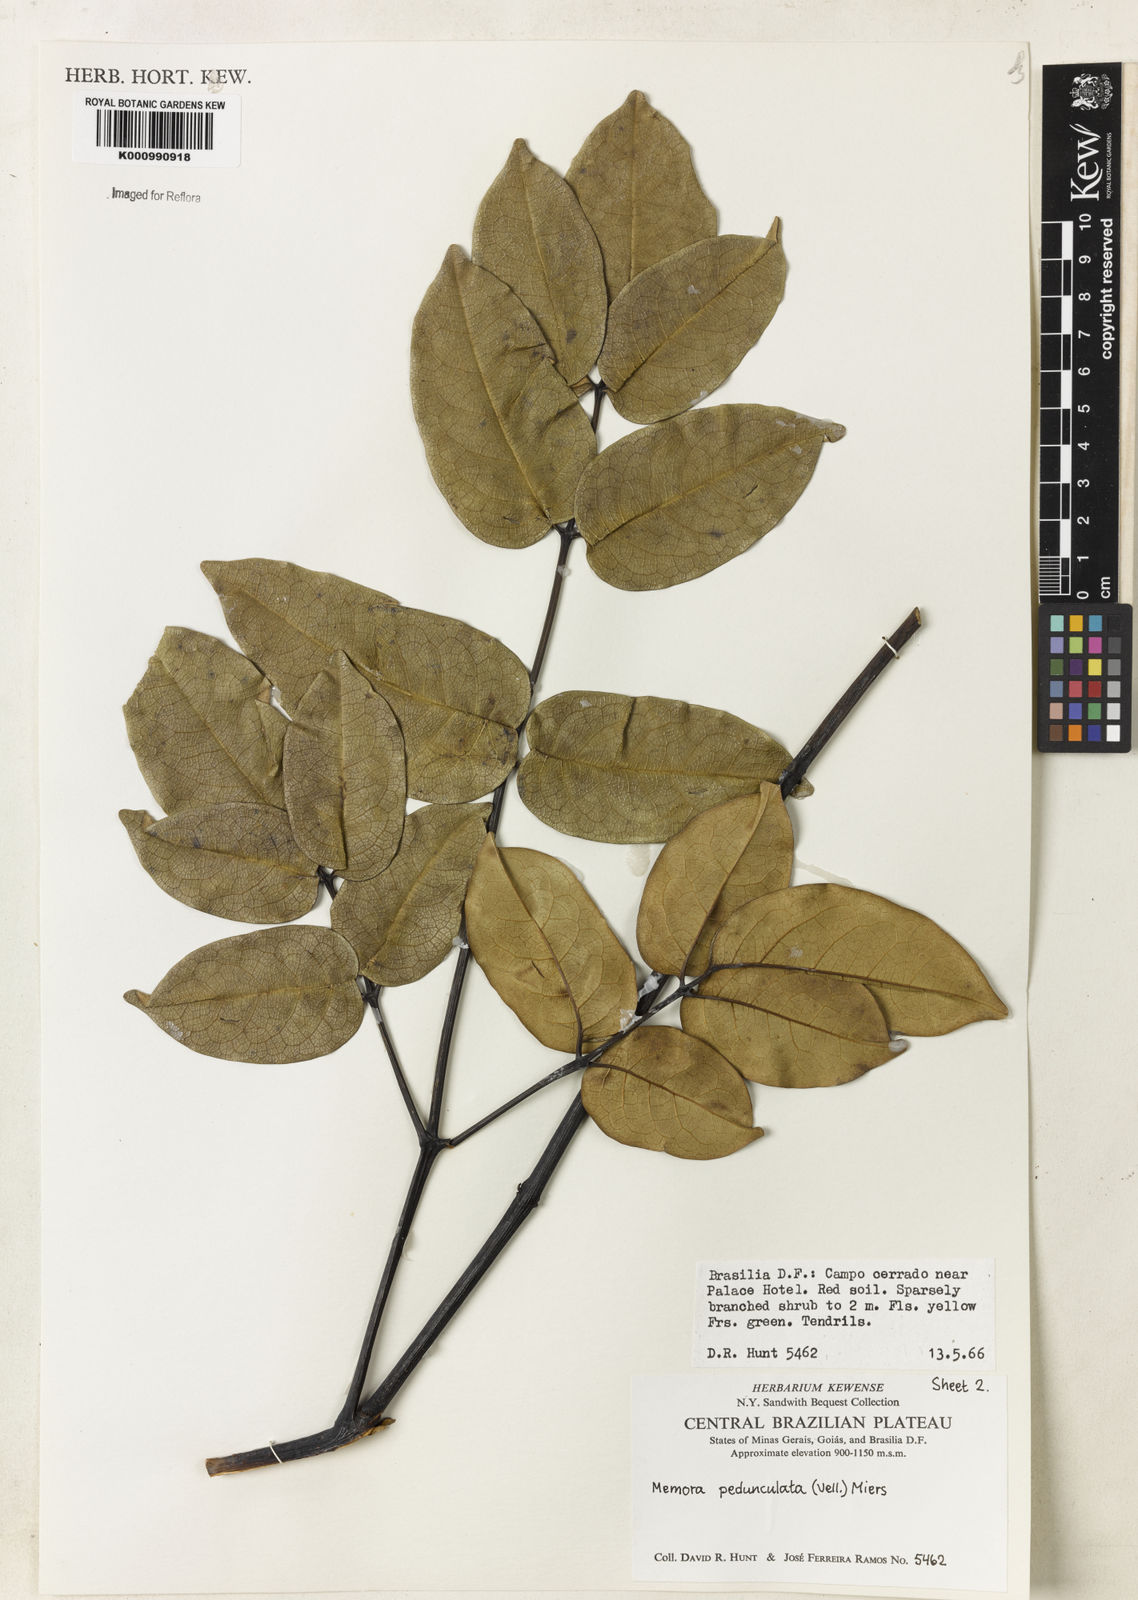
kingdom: Plantae
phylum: Tracheophyta
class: Magnoliopsida
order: Lamiales
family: Bignoniaceae
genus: Adenocalymma
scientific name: Adenocalymma pedunculatum
